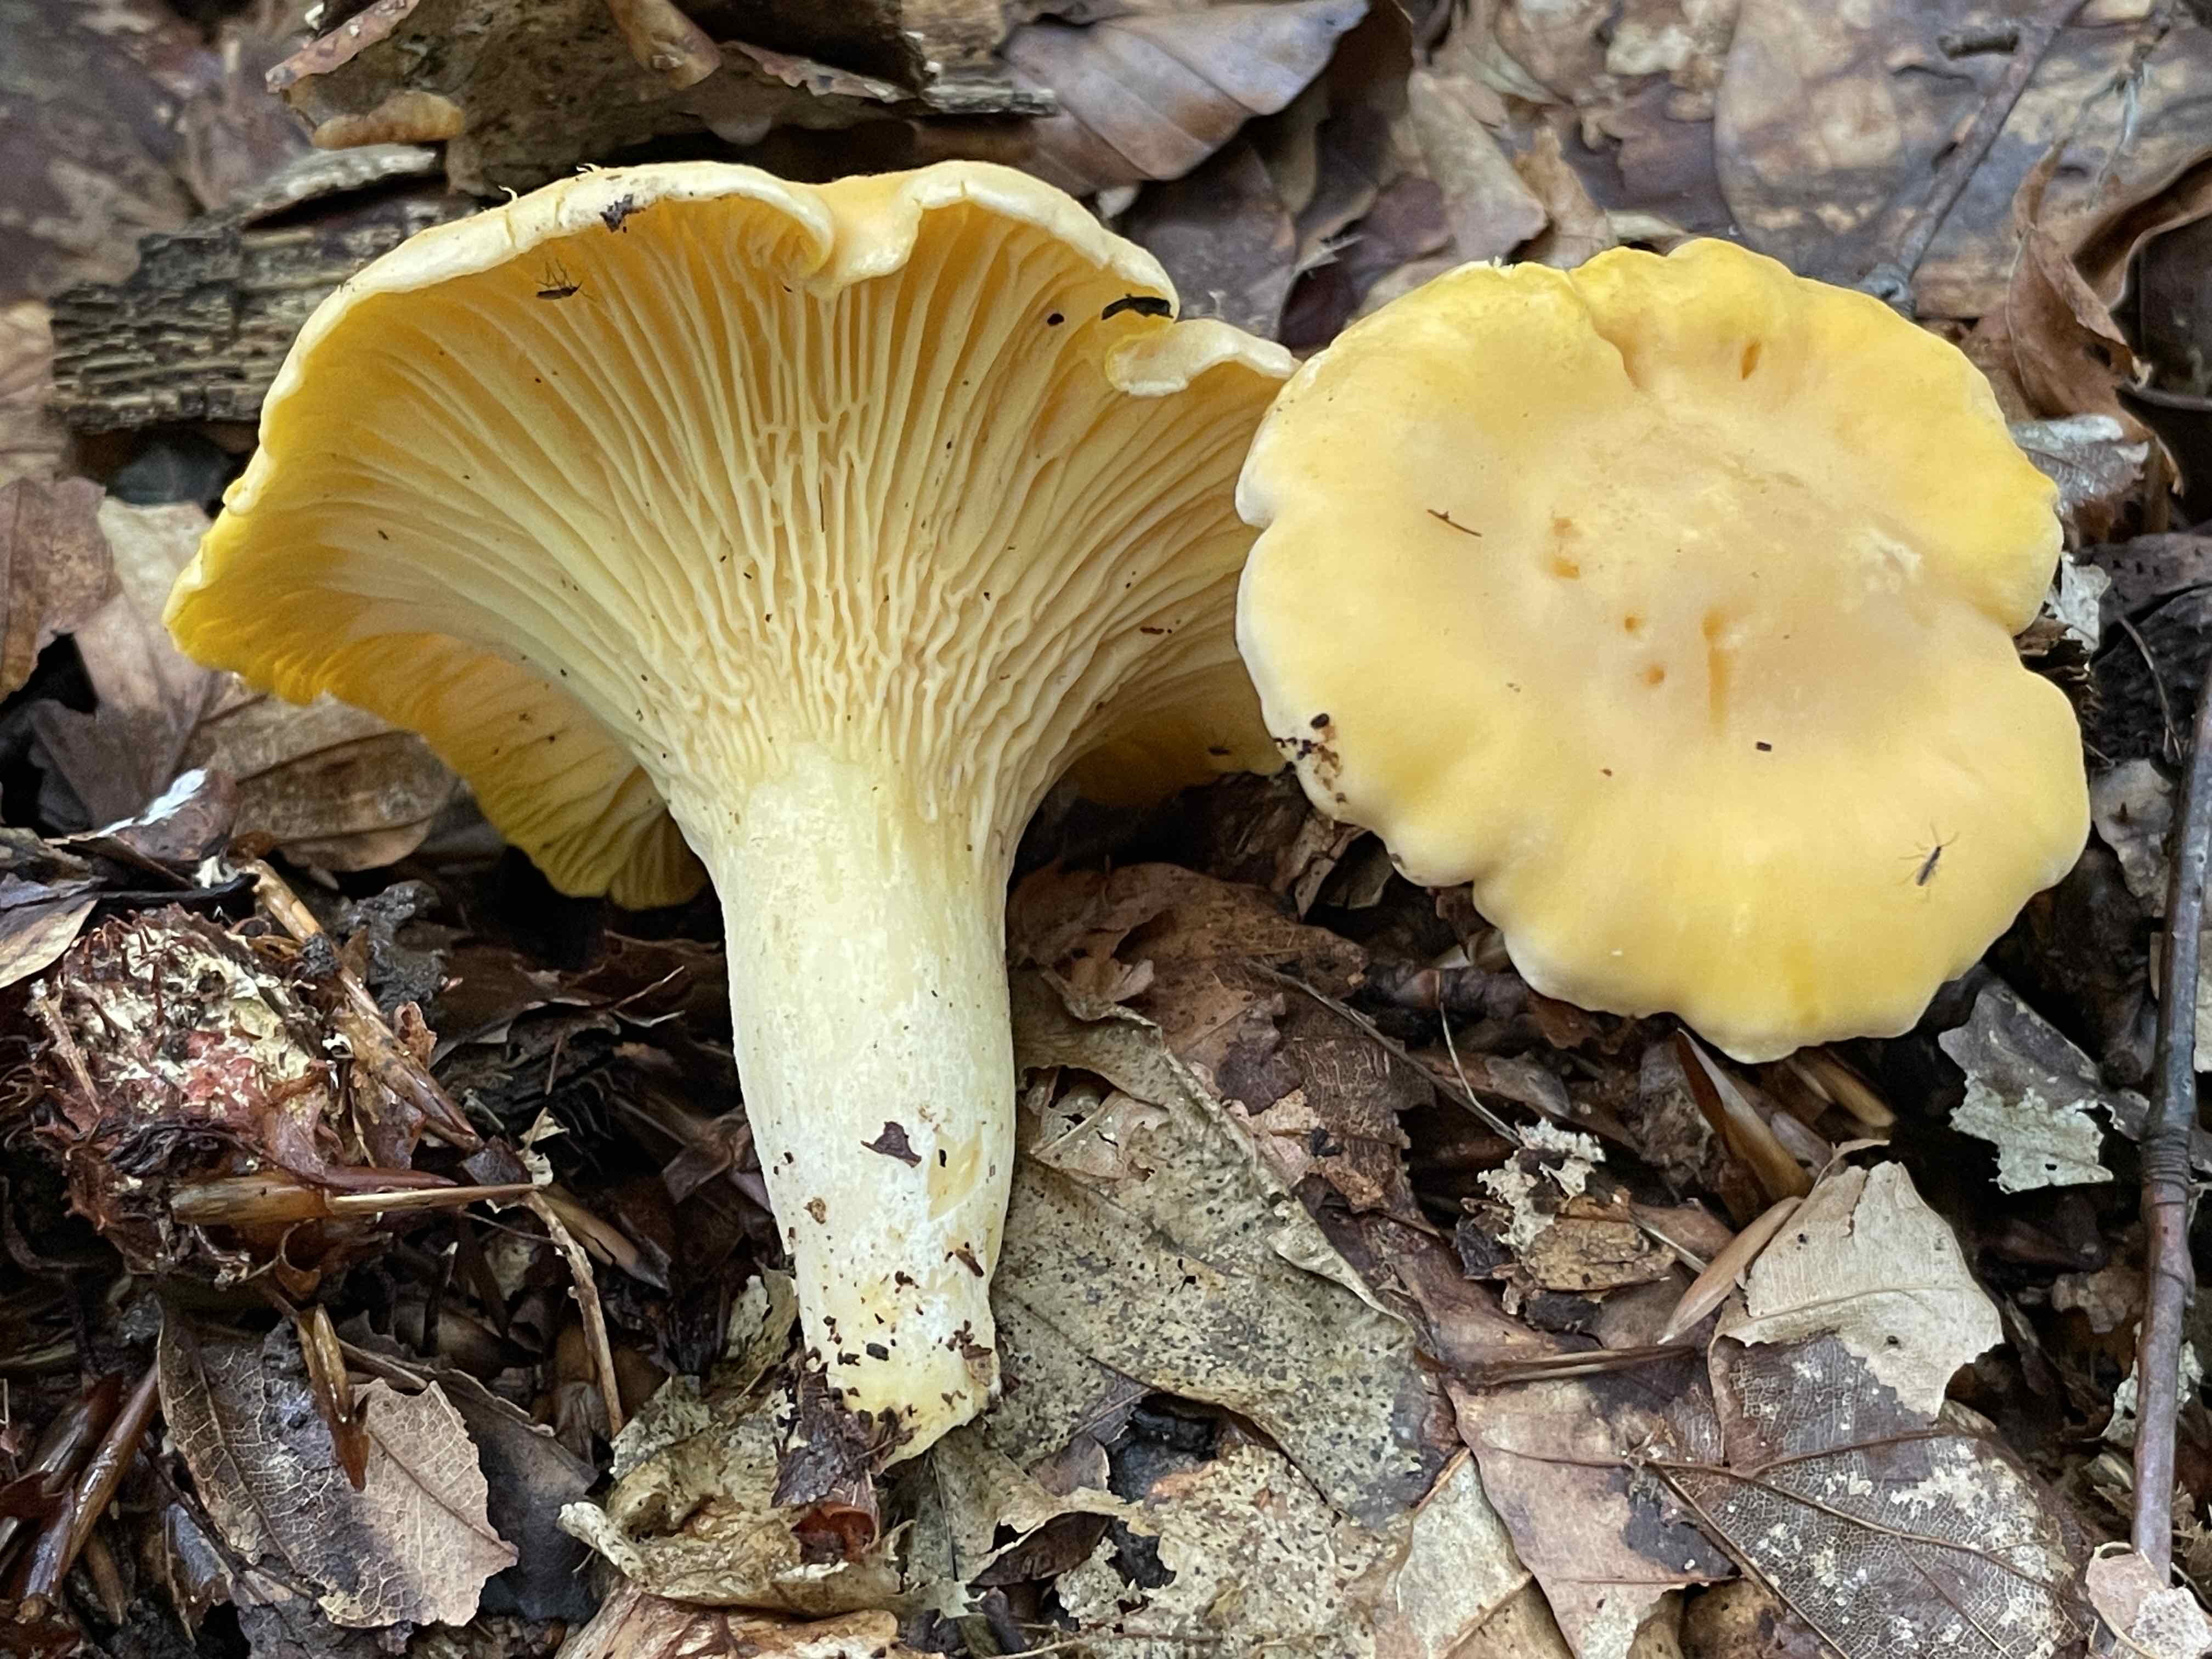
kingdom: Fungi
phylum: Basidiomycota
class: Agaricomycetes
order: Cantharellales
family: Hydnaceae
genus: Cantharellus
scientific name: Cantharellus pallens
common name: bleg kantarel
